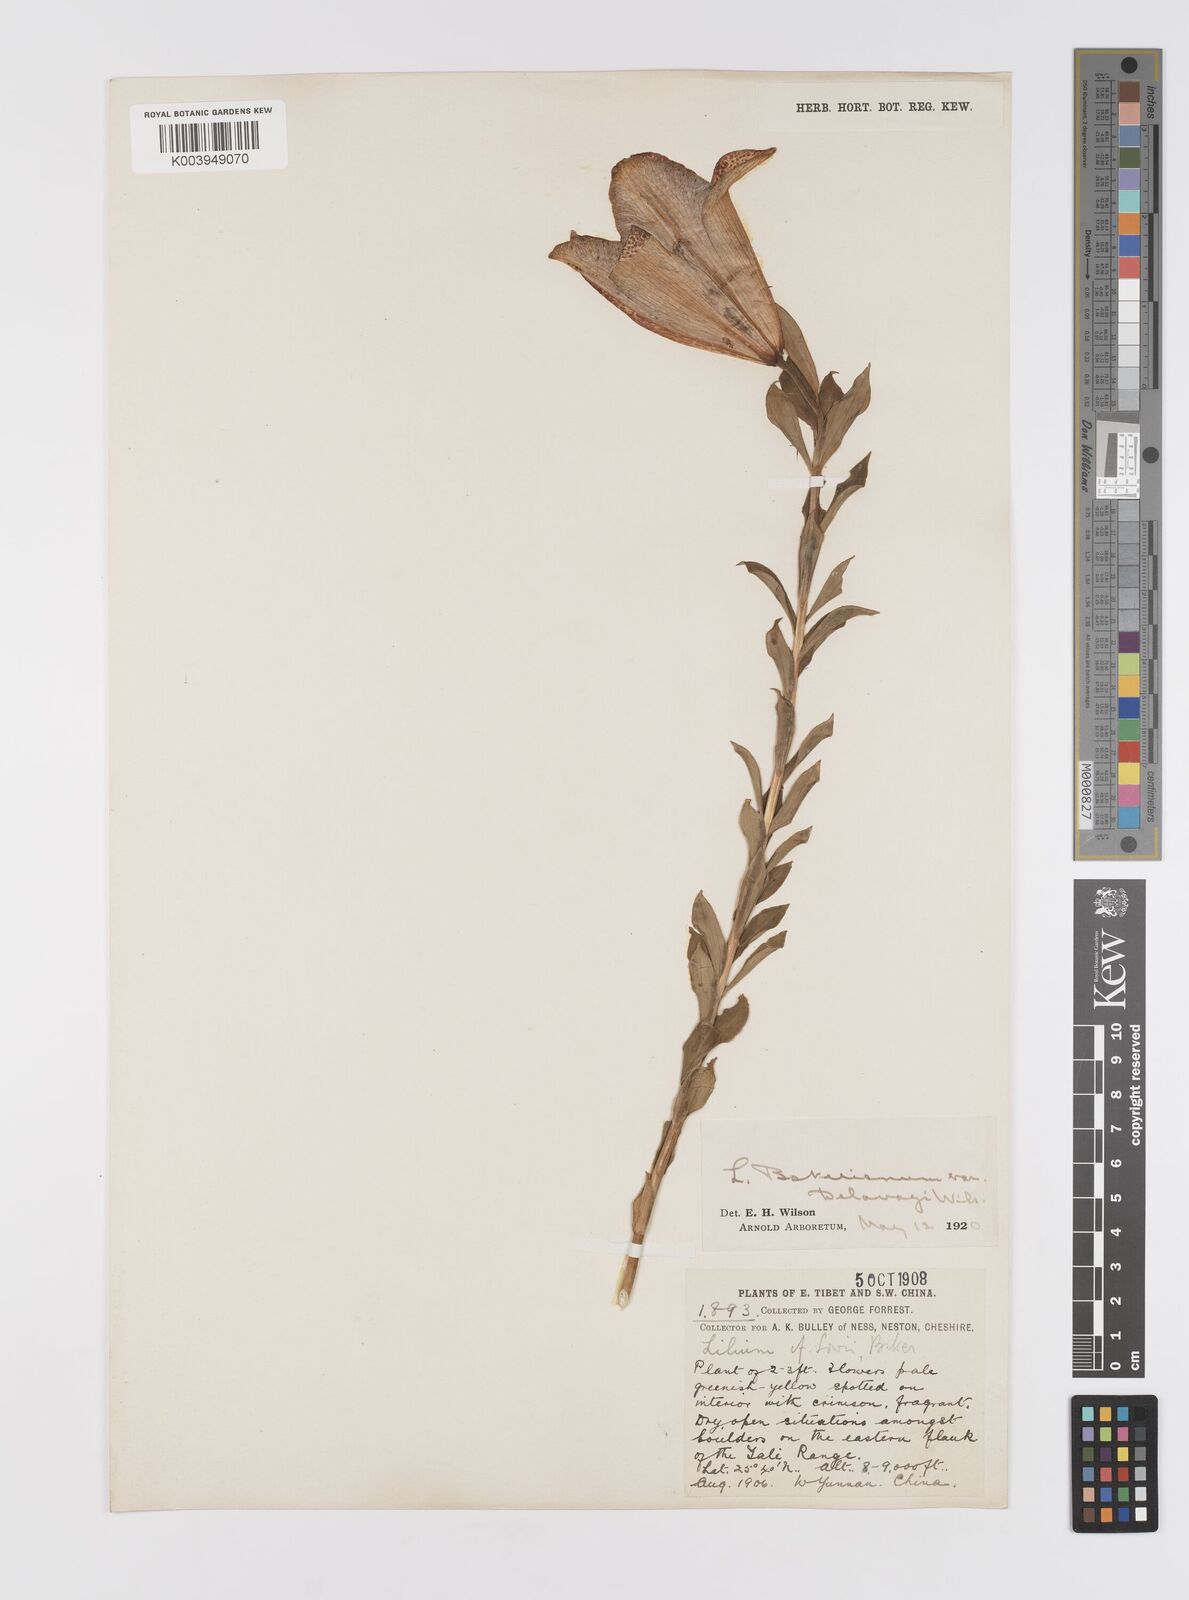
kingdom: Plantae
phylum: Tracheophyta
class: Liliopsida
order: Liliales
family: Liliaceae
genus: Lilium
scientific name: Lilium bakerianum
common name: Baker's lily
